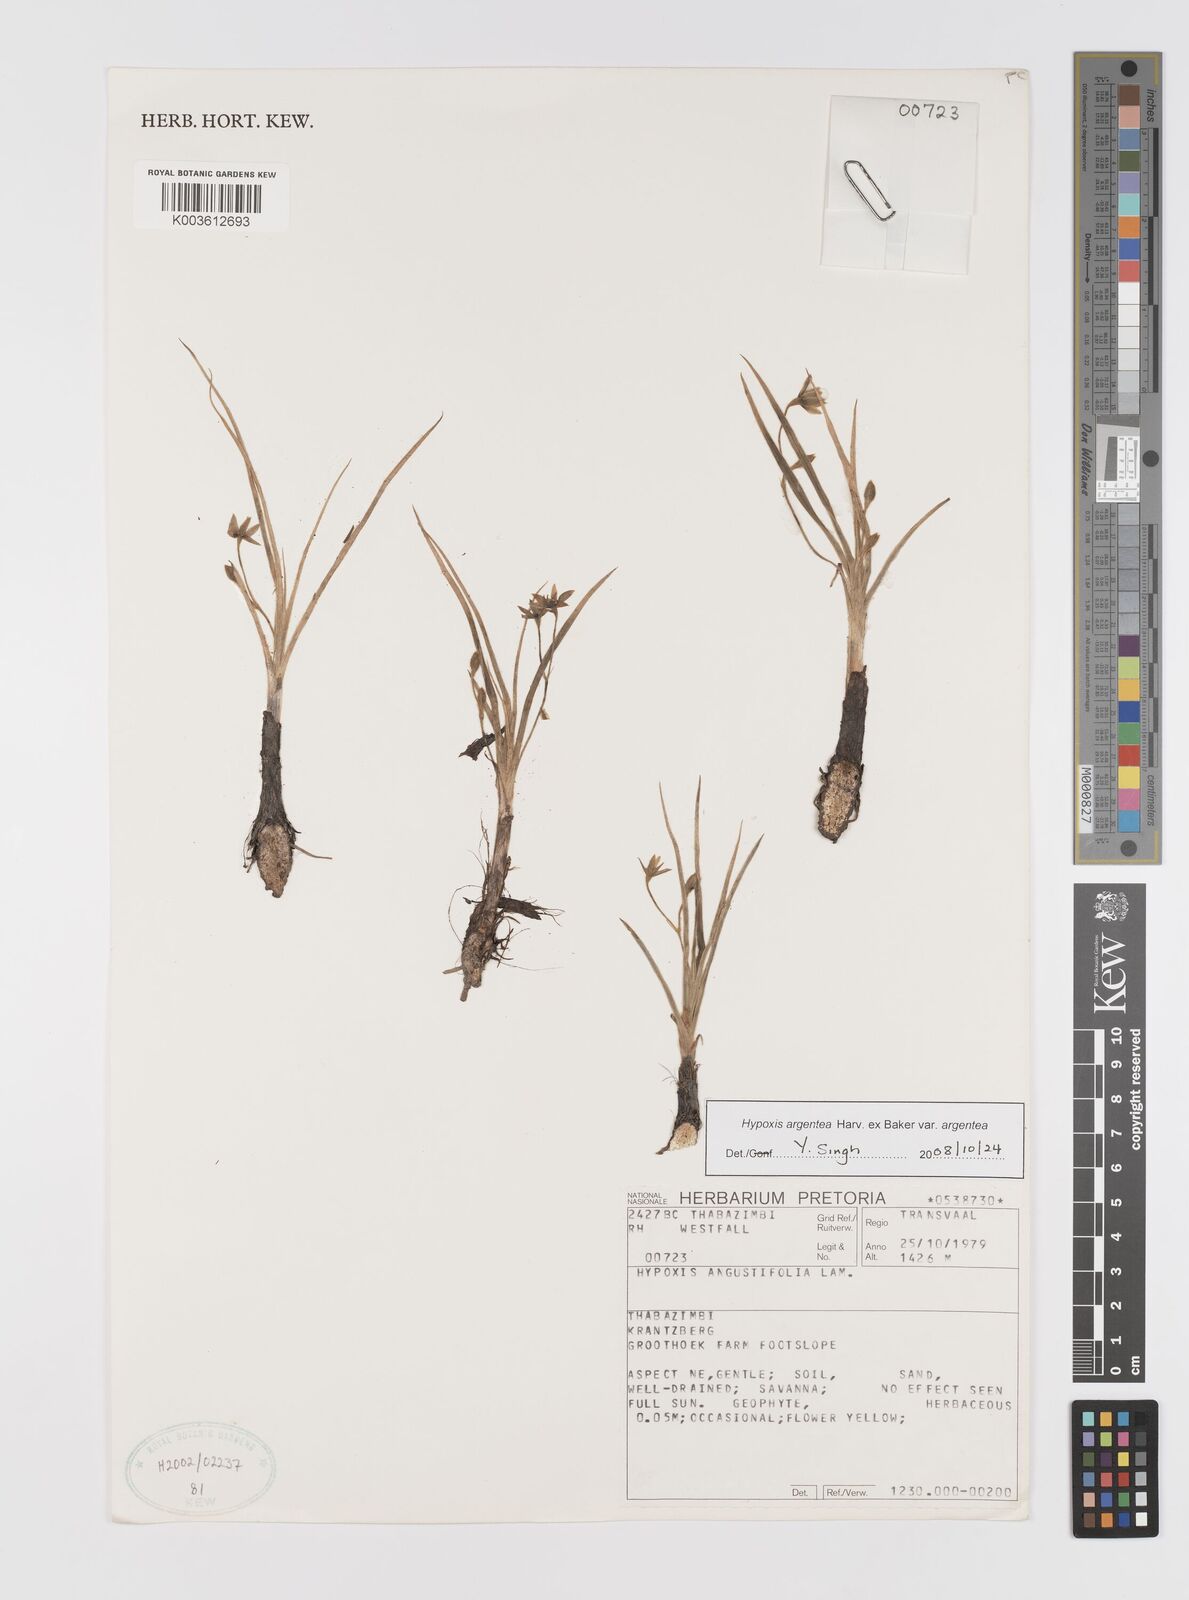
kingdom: Plantae
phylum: Tracheophyta
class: Liliopsida
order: Asparagales
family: Hypoxidaceae
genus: Hypoxis
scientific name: Hypoxis argentea
